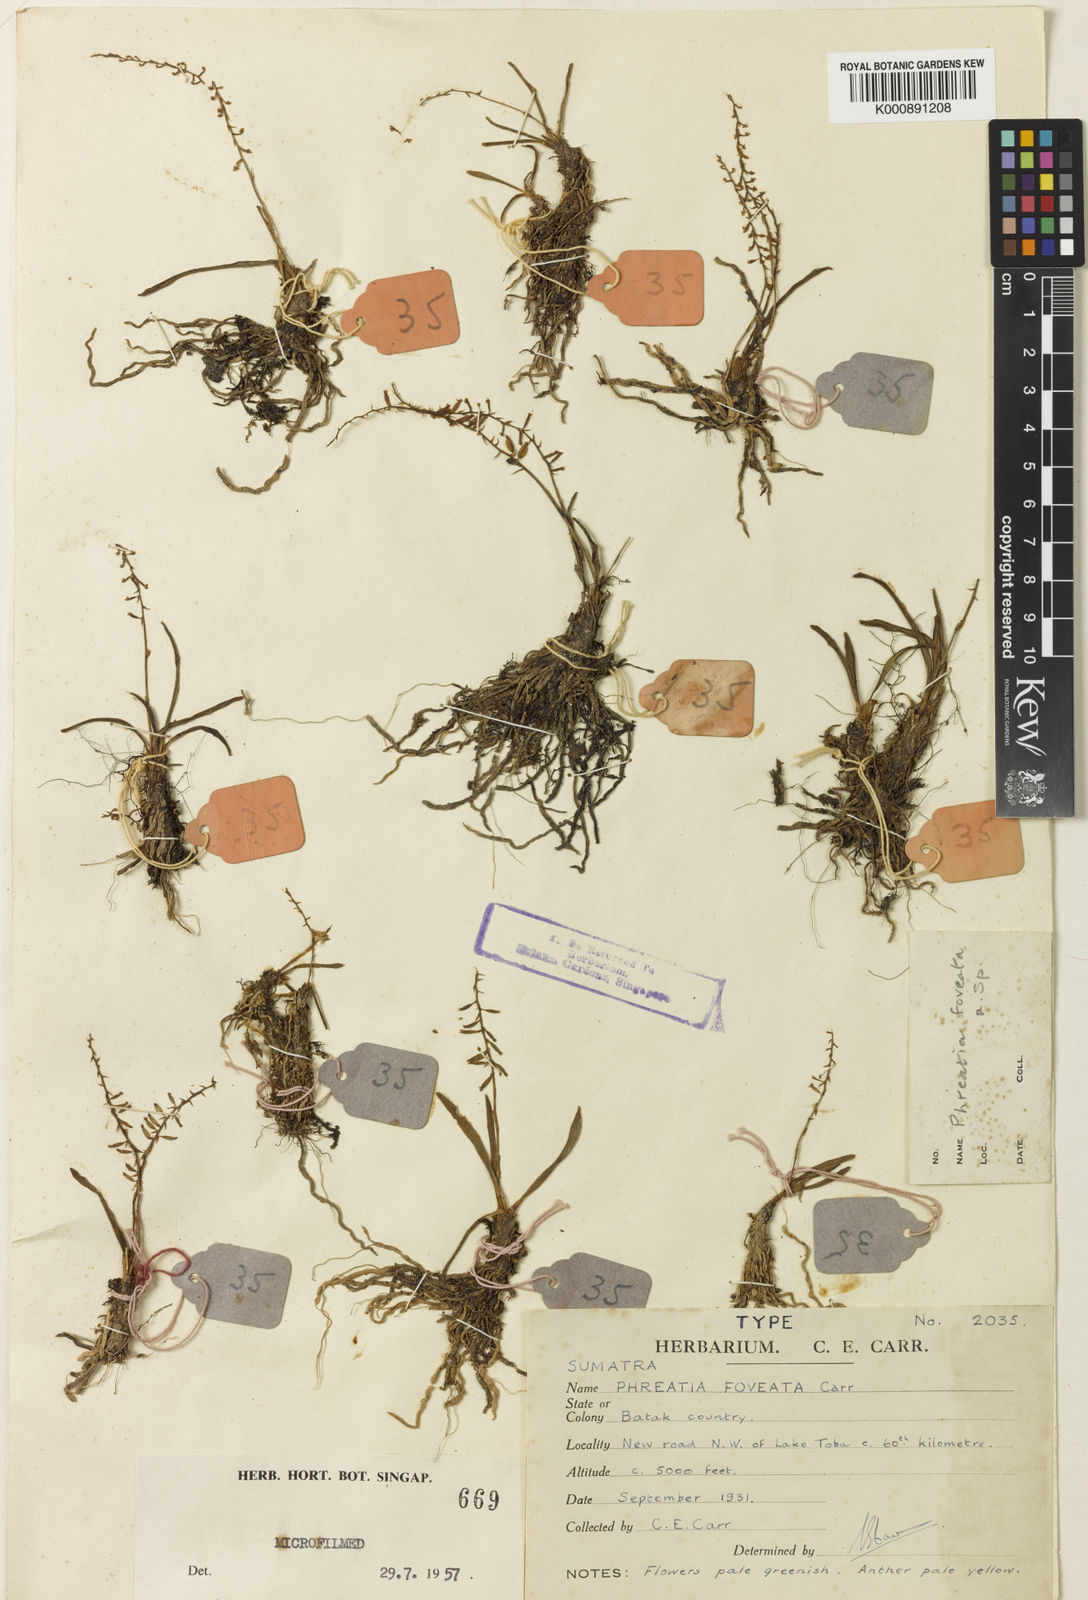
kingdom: Plantae
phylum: Tracheophyta
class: Liliopsida
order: Asparagales
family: Orchidaceae
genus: Phreatia
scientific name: Phreatia foveata
